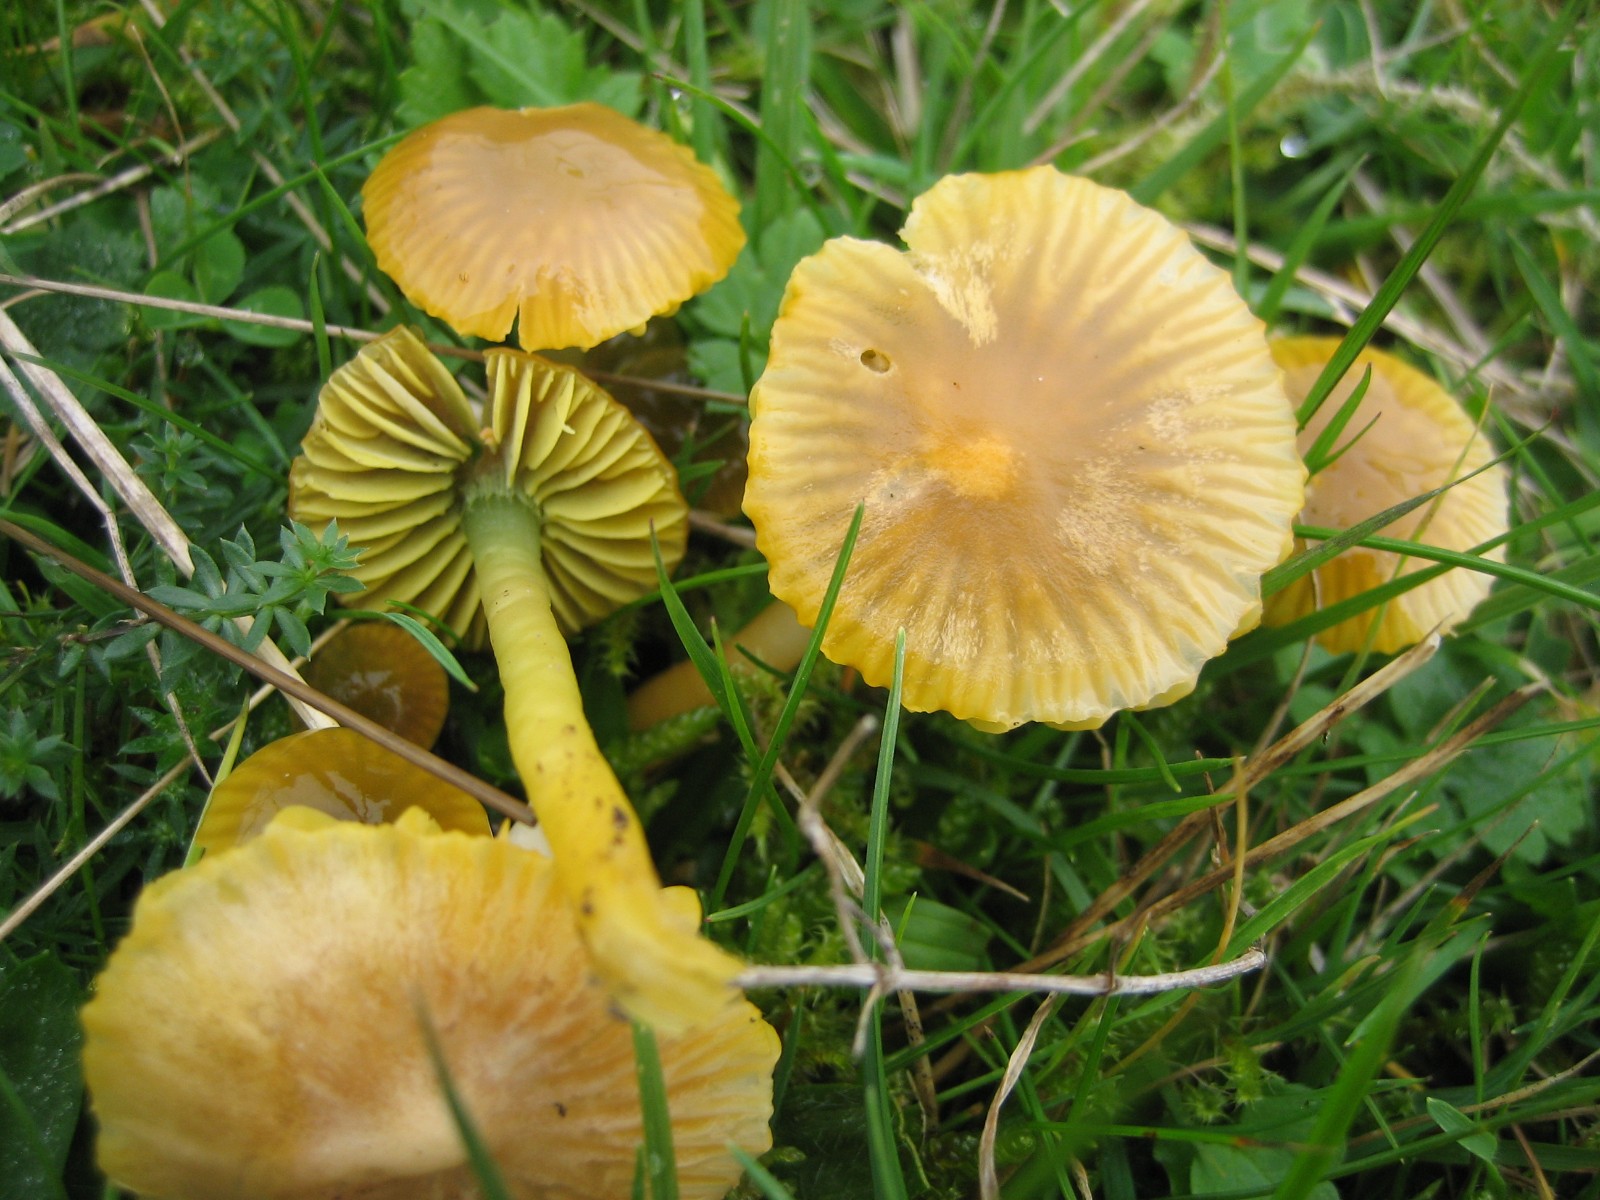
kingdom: Fungi
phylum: Basidiomycota
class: Agaricomycetes
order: Agaricales
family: Hygrophoraceae
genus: Gliophorus
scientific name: Gliophorus psittacinus
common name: papegøje-vokshat
